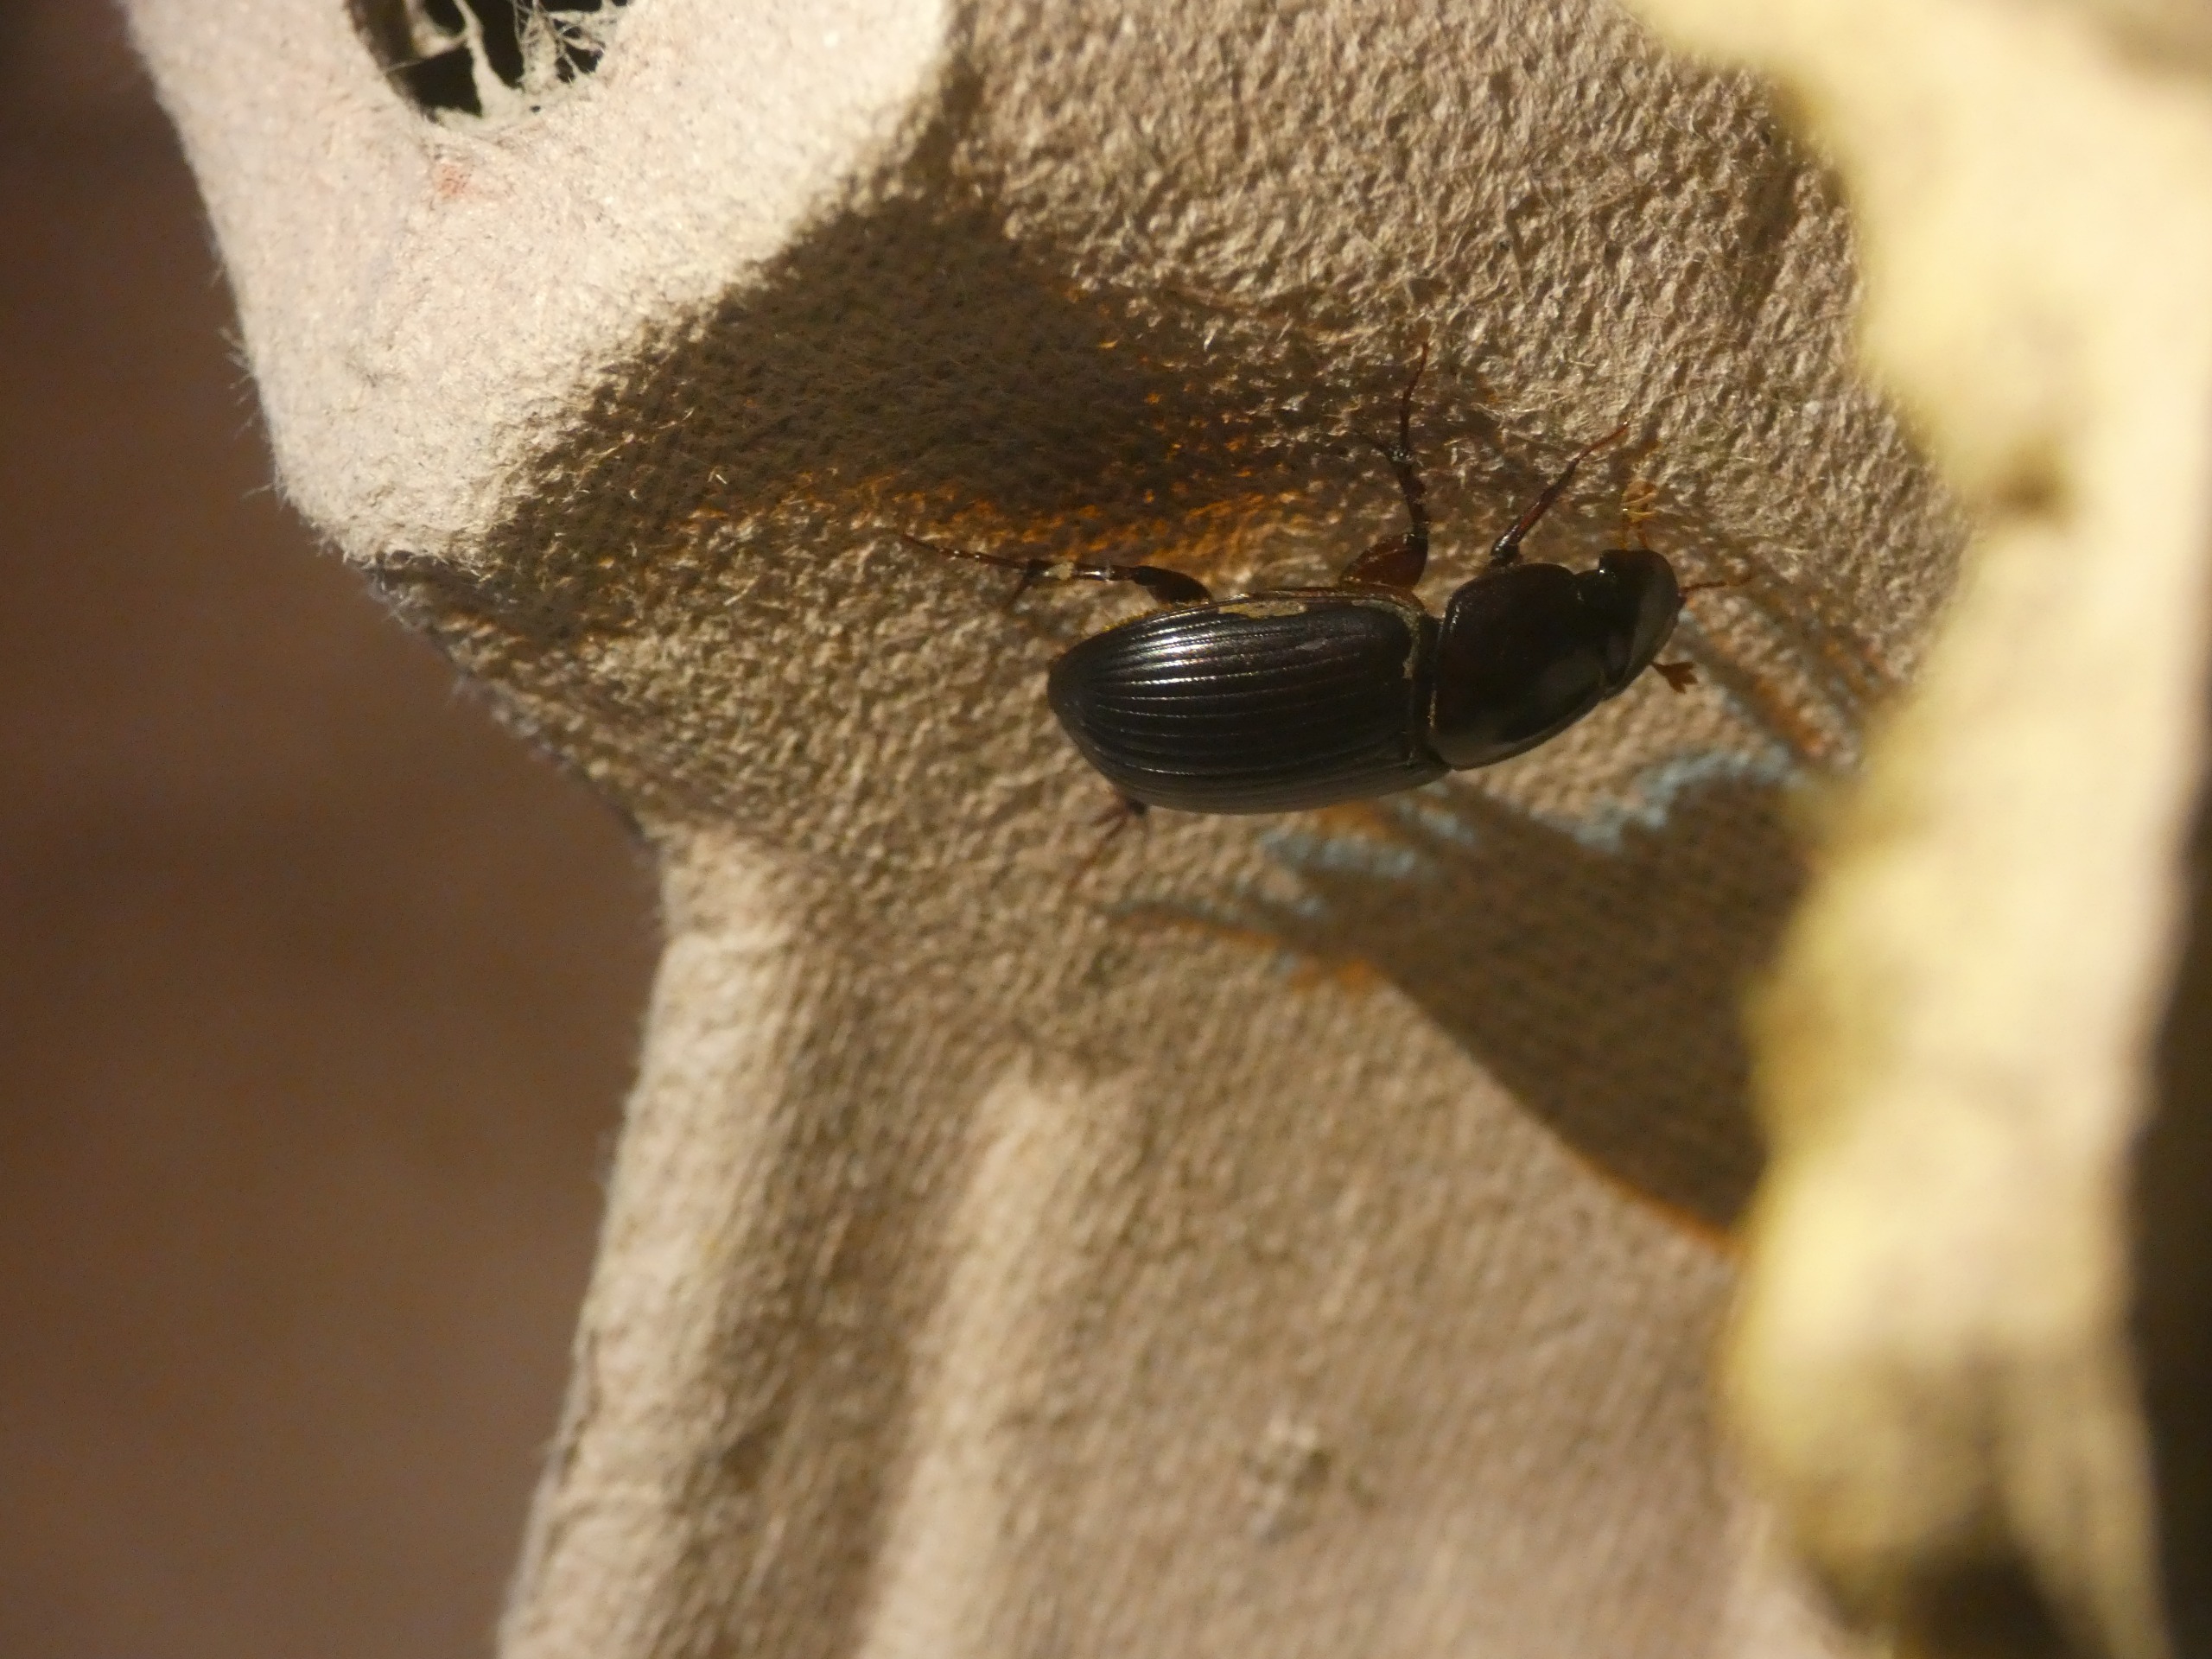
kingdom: Animalia
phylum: Arthropoda
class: Insecta
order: Coleoptera
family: Scarabaeidae
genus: Acrossus
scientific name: Acrossus rufipes
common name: Rødbenet møgbille
